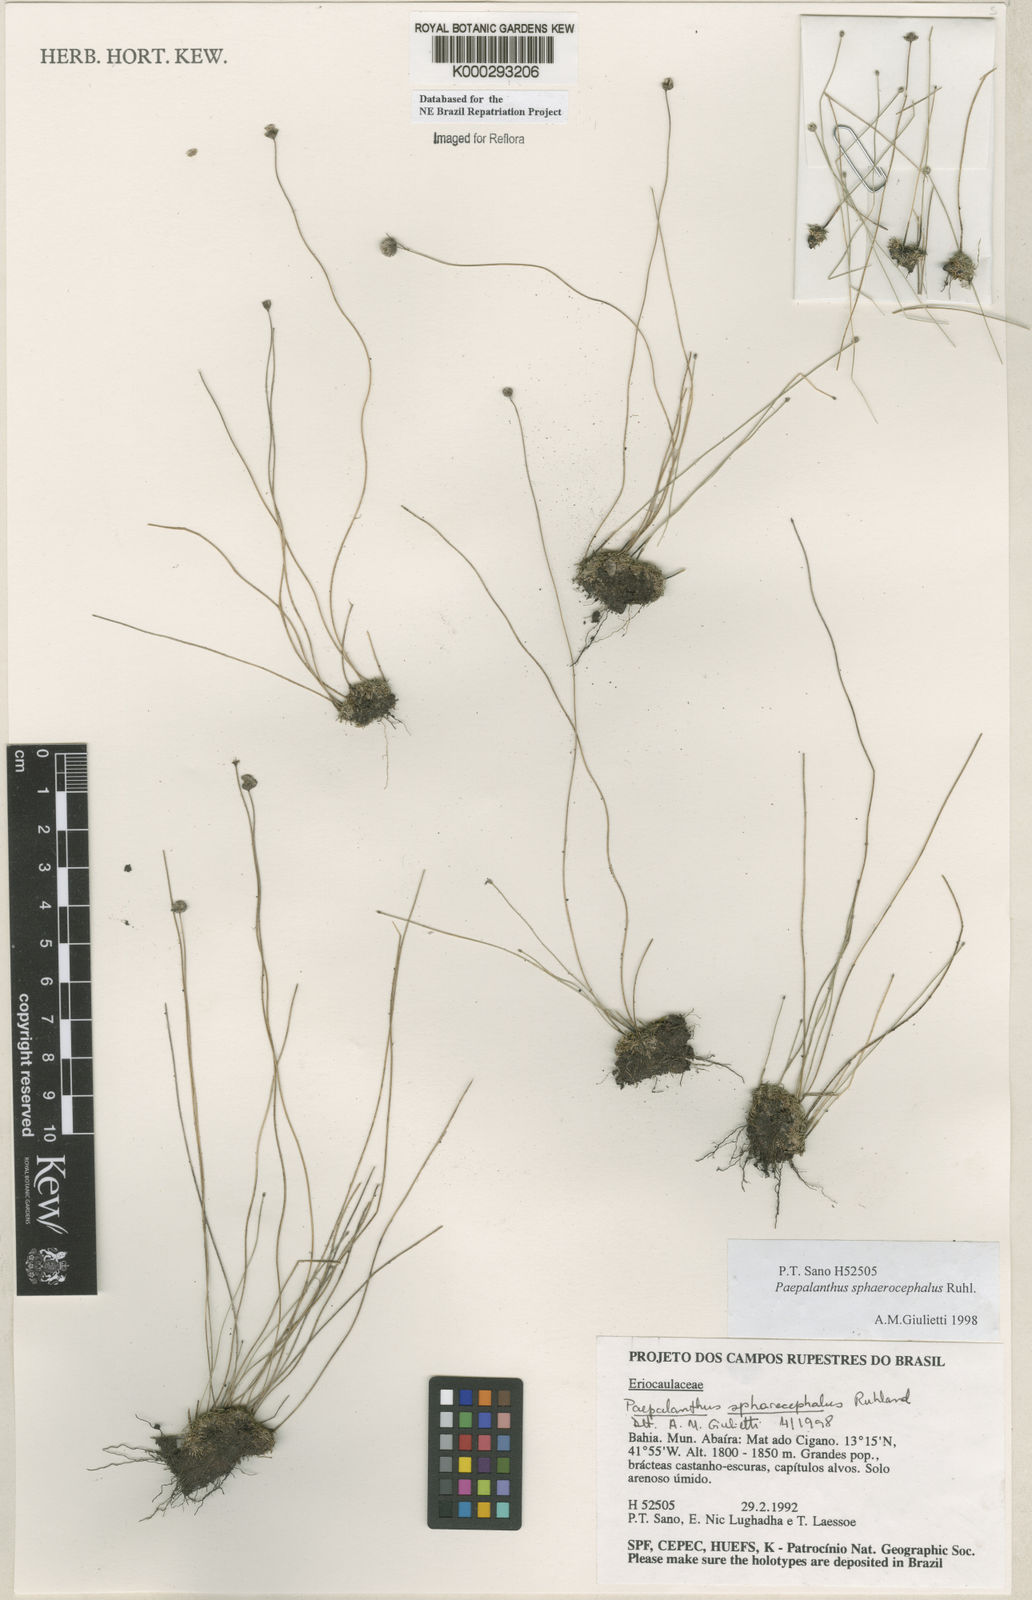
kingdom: Plantae
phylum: Tracheophyta
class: Liliopsida
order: Poales
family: Eriocaulaceae
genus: Paepalanthus
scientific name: Paepalanthus sphaerocephalus
